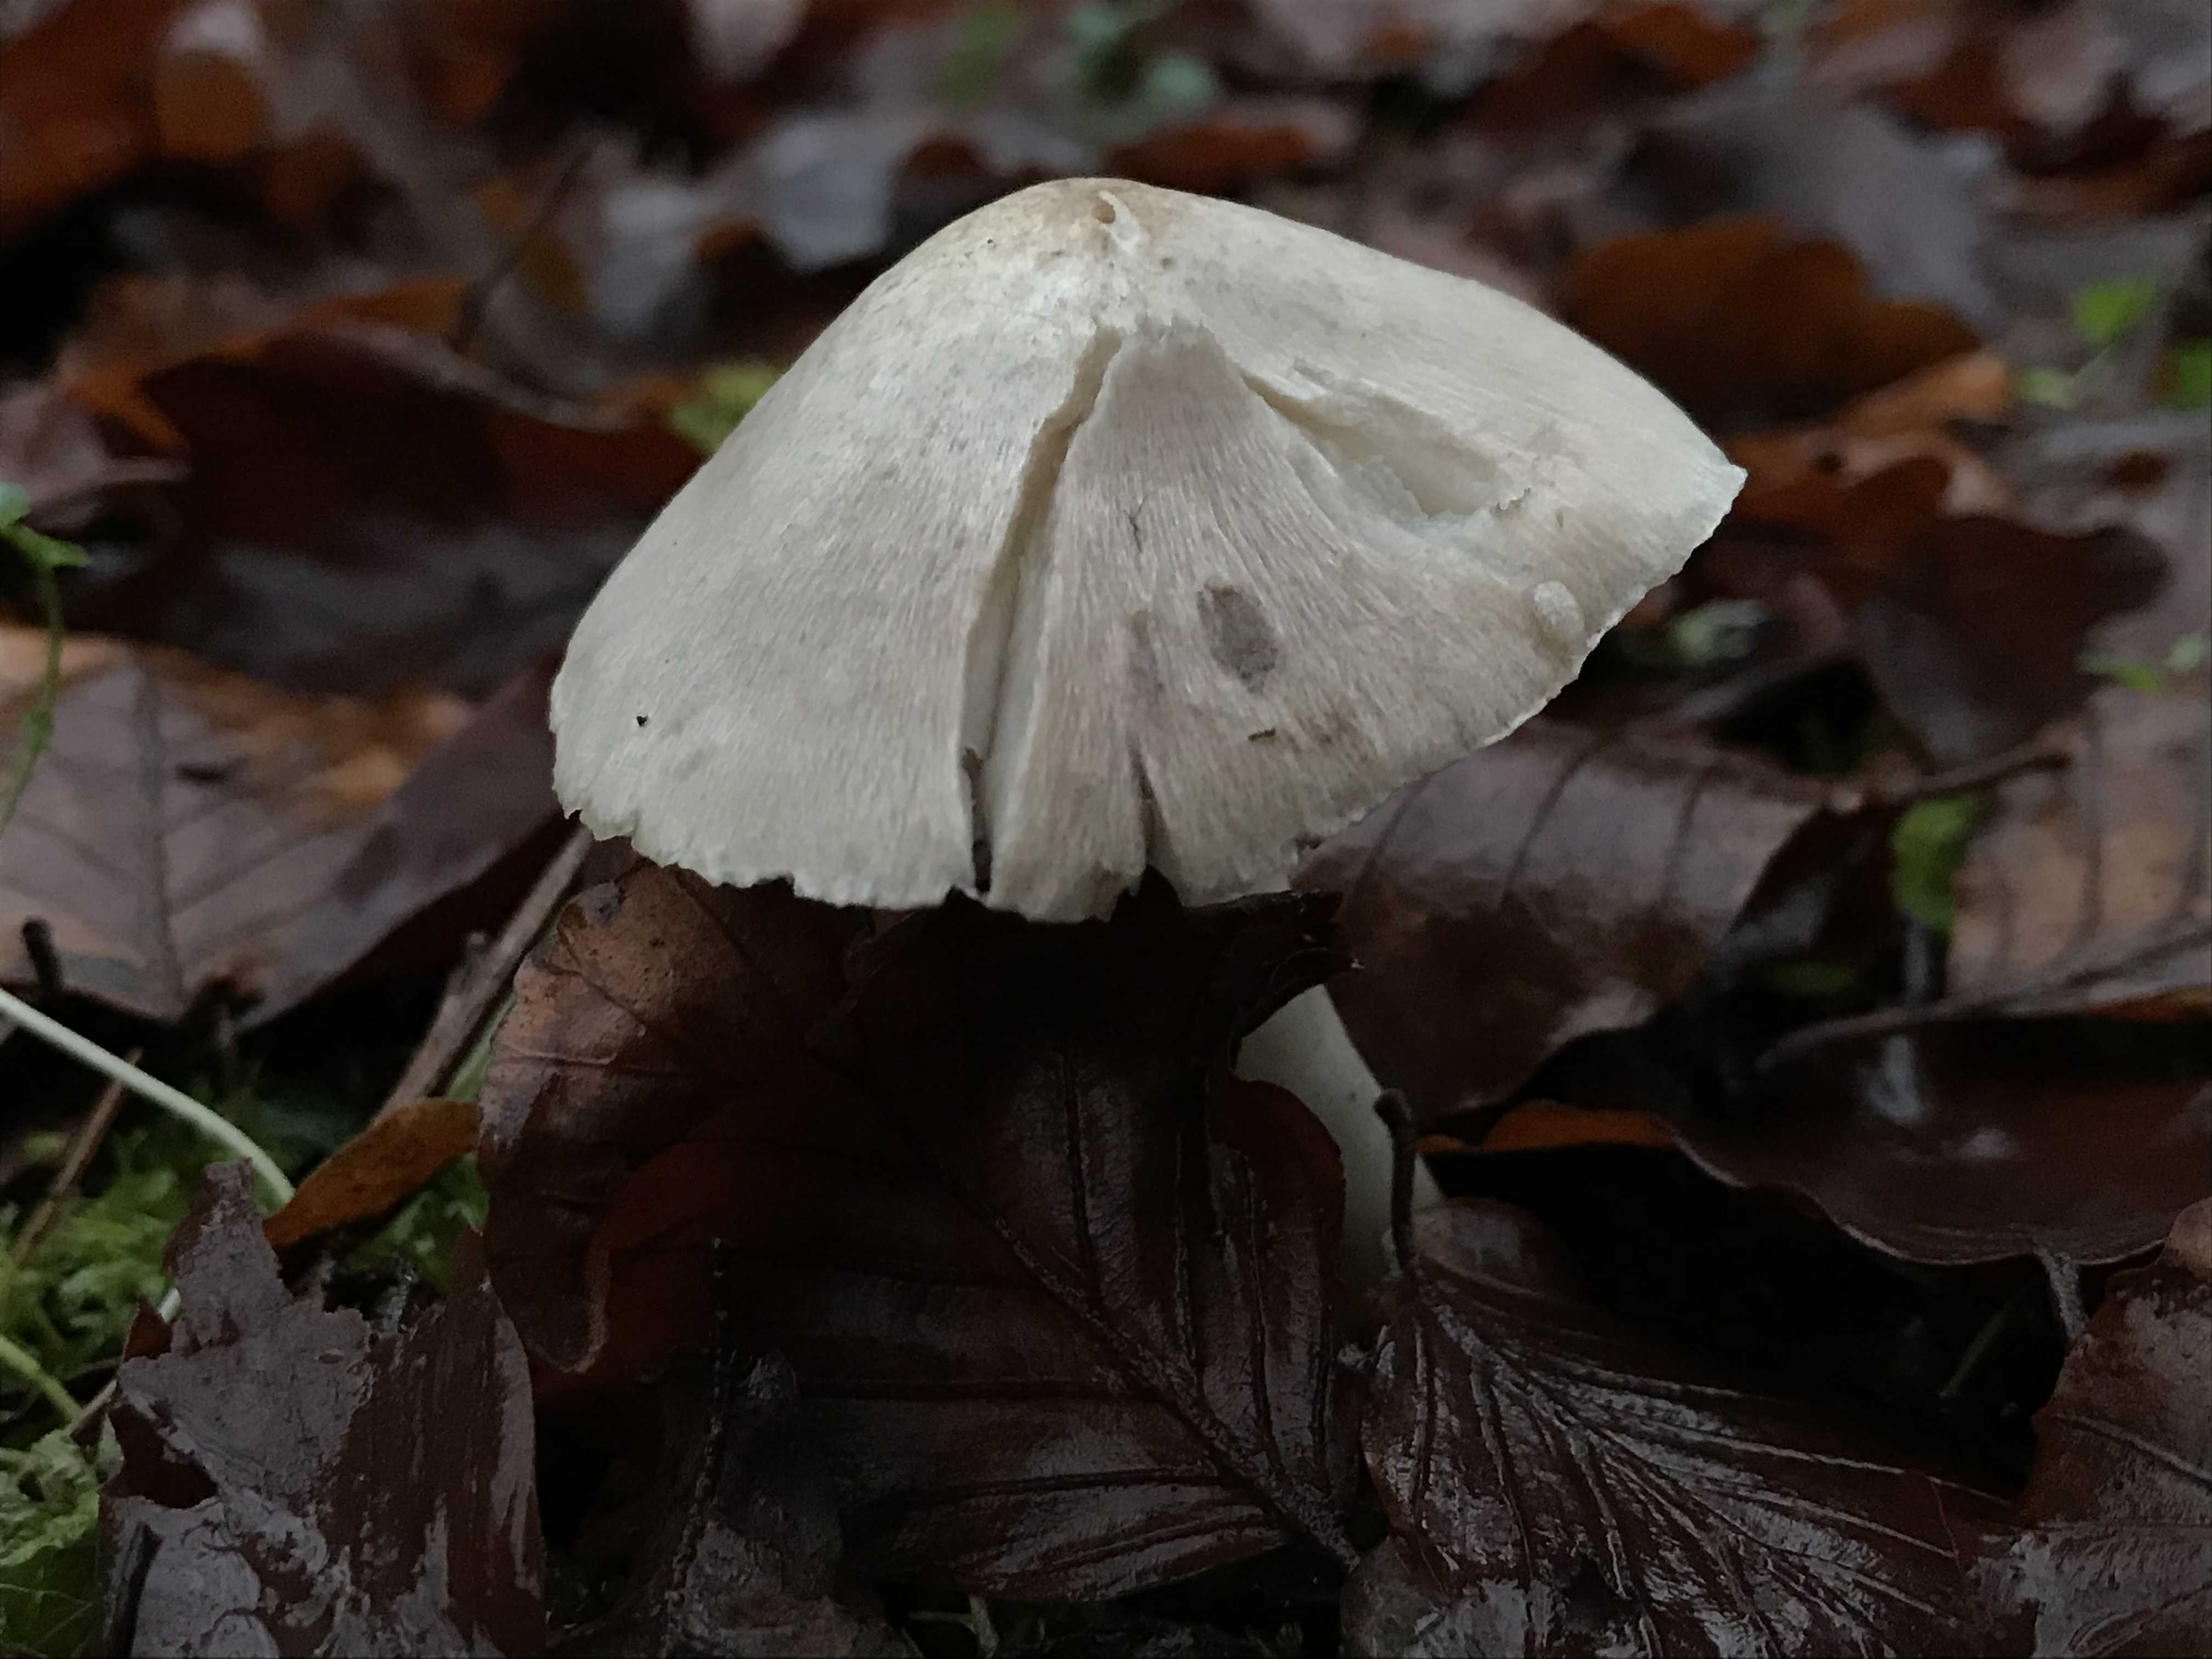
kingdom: Fungi
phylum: Basidiomycota
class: Agaricomycetes
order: Agaricales
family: Tricholomataceae
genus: Tricholoma
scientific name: Tricholoma scalpturatum
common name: gulplettet ridderhat
